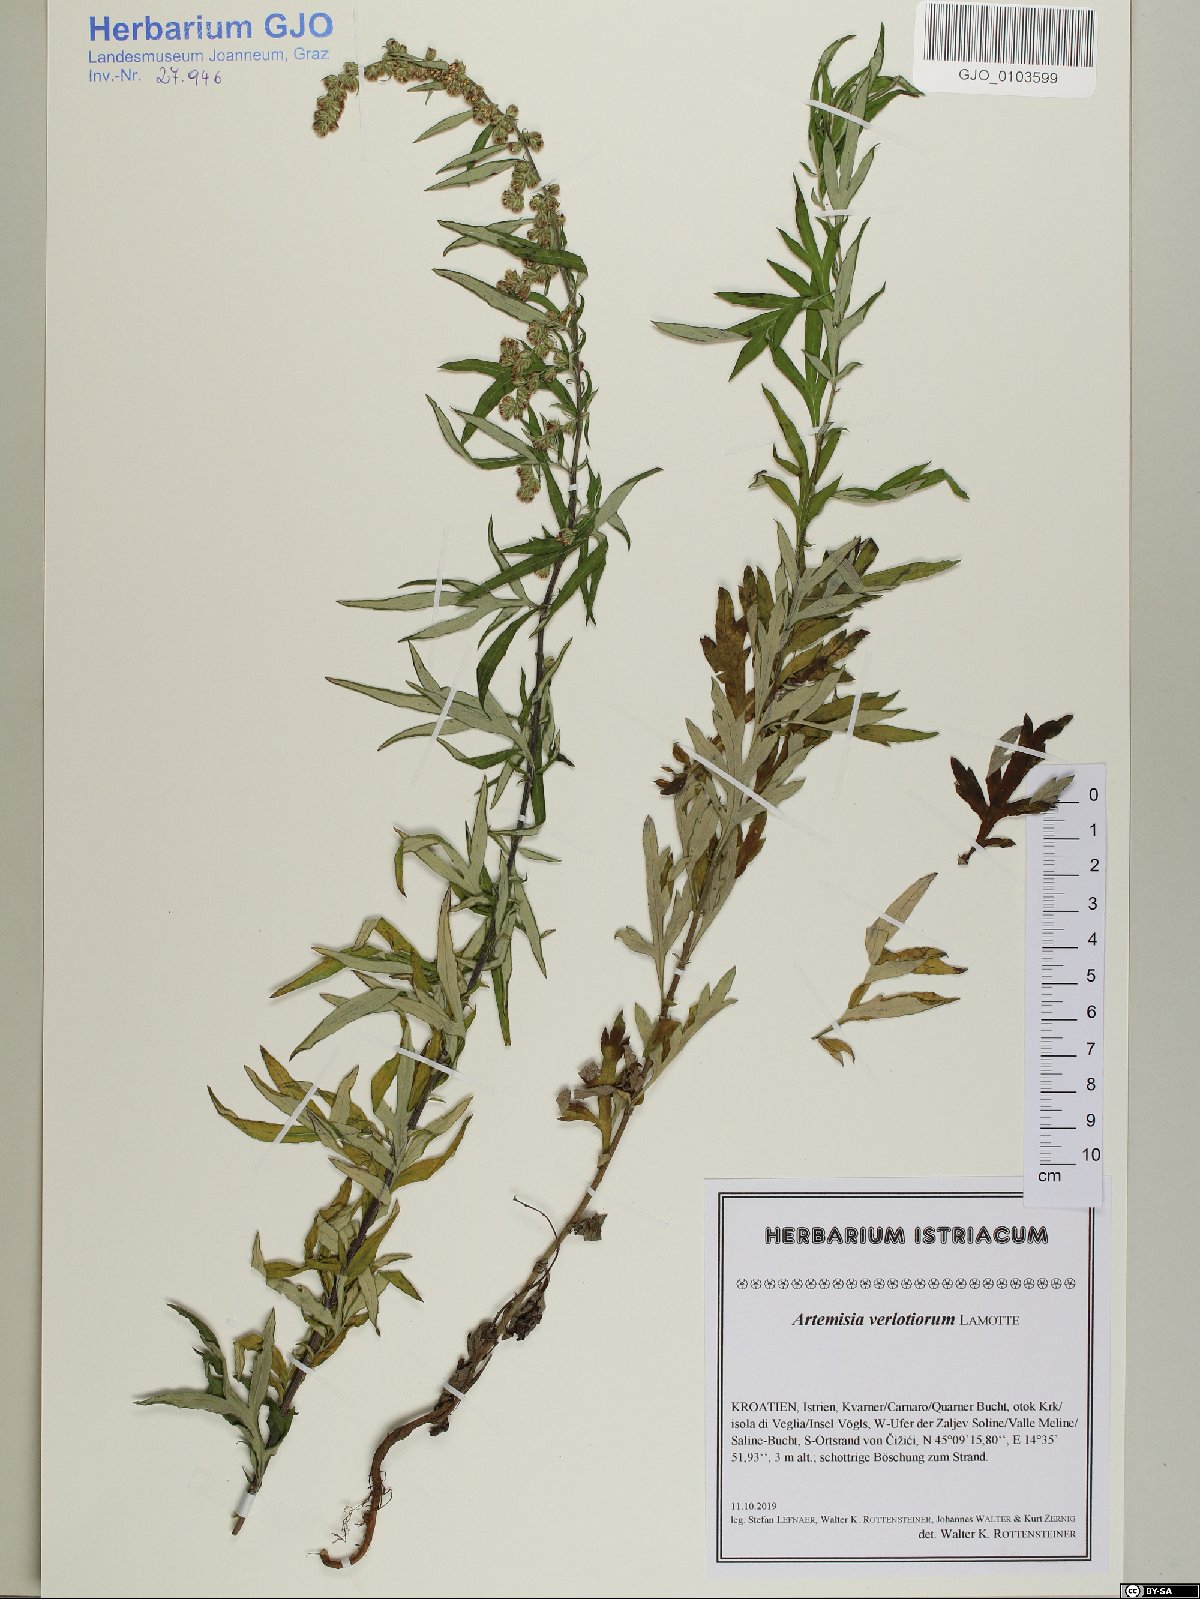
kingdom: Plantae
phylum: Tracheophyta
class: Magnoliopsida
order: Asterales
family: Asteraceae
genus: Artemisia
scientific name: Artemisia verlotiorum
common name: Chinese mugwort
